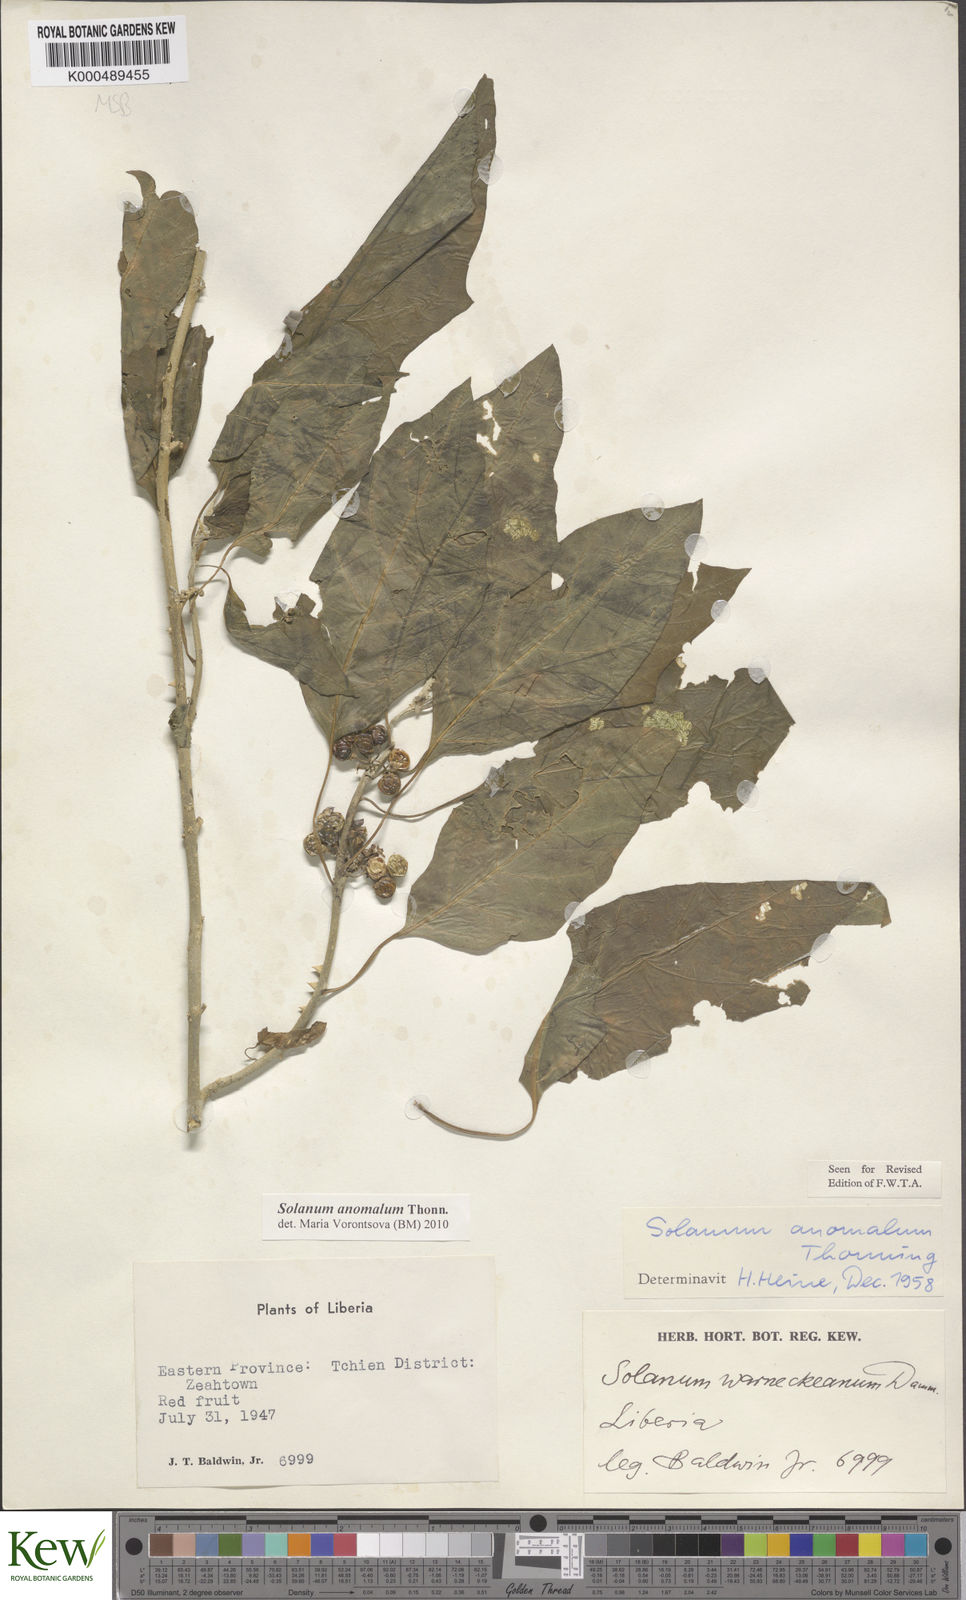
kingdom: Plantae
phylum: Tracheophyta
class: Magnoliopsida
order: Solanales
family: Solanaceae
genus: Solanum
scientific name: Solanum anomalum
